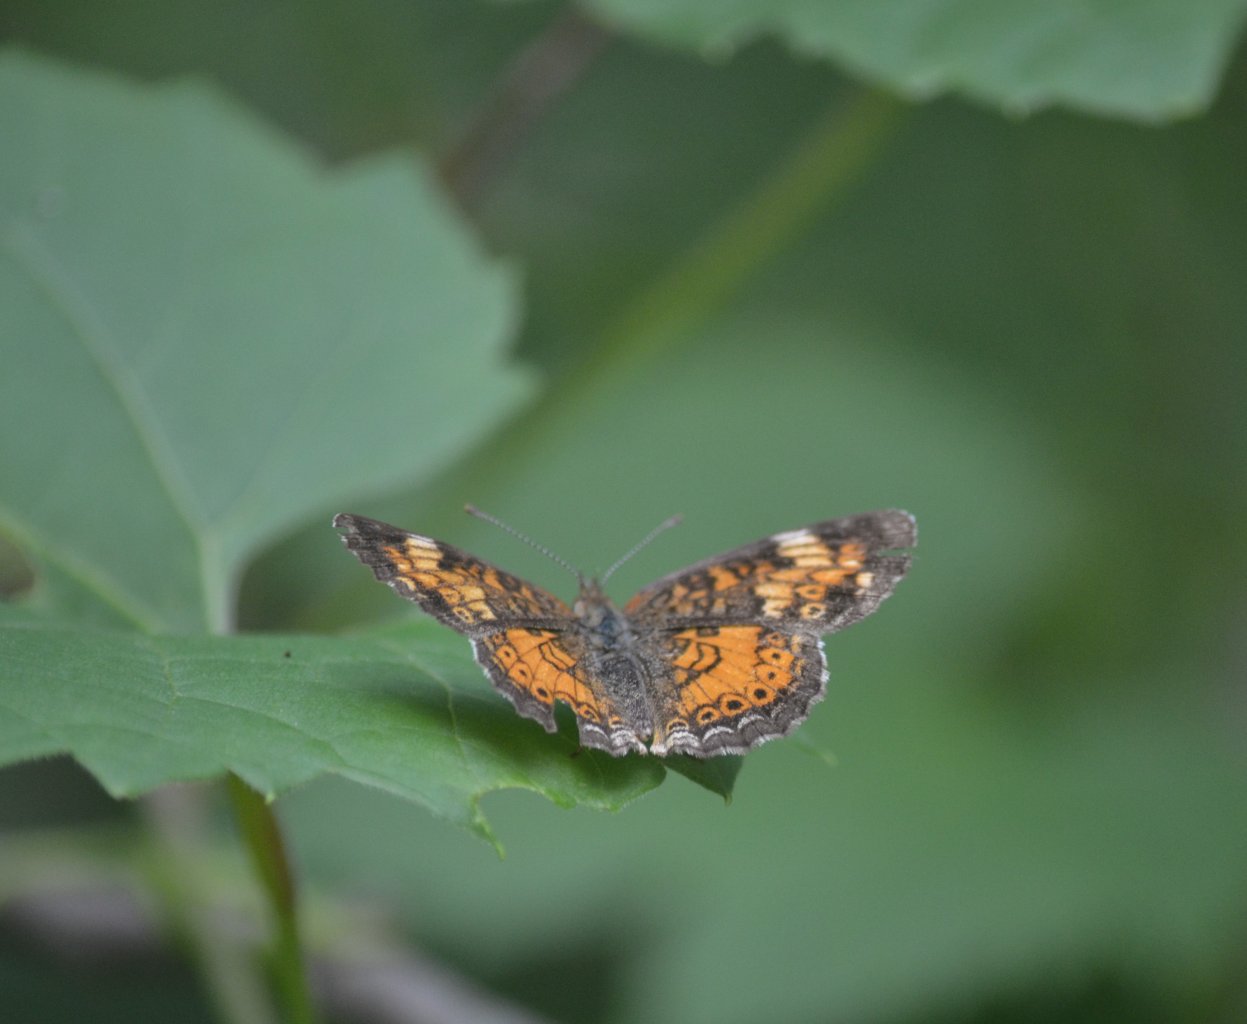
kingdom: Animalia
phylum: Arthropoda
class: Insecta
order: Lepidoptera
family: Nymphalidae
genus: Phyciodes
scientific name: Phyciodes tharos
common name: Northern Crescent
